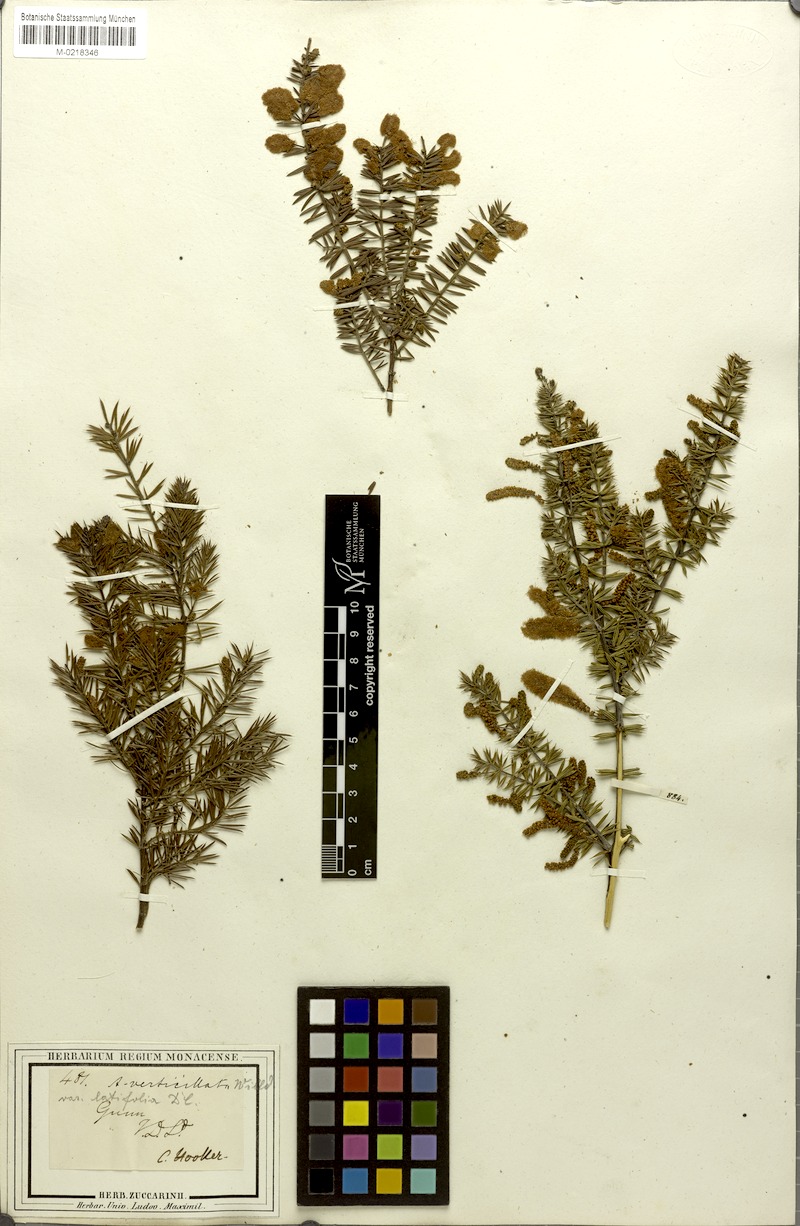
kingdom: Plantae
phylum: Tracheophyta
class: Magnoliopsida
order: Fabales
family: Fabaceae
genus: Acacia
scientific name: Acacia ulicifolia
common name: Juniper wattle
